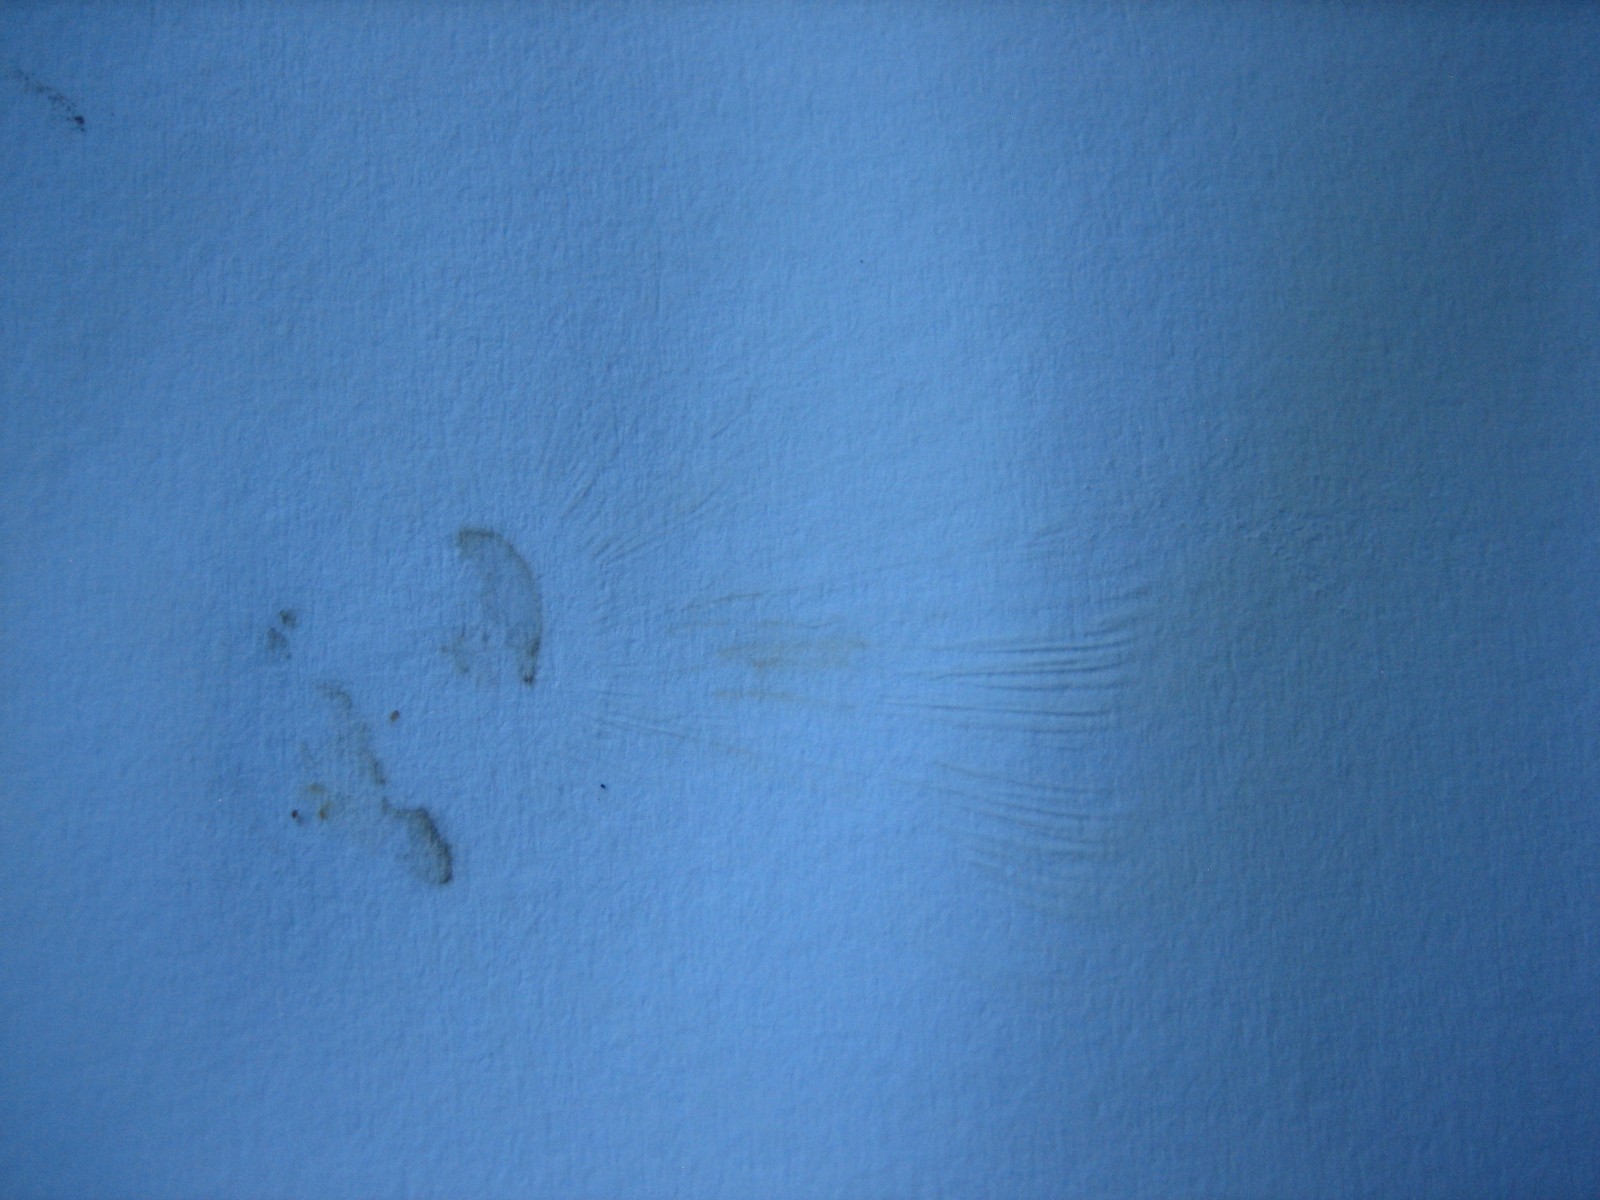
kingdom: Fungi
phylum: Basidiomycota
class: Agaricomycetes
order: Agaricales
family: Tricholomataceae
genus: Melanoleuca
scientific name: Melanoleuca
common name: munkehat
